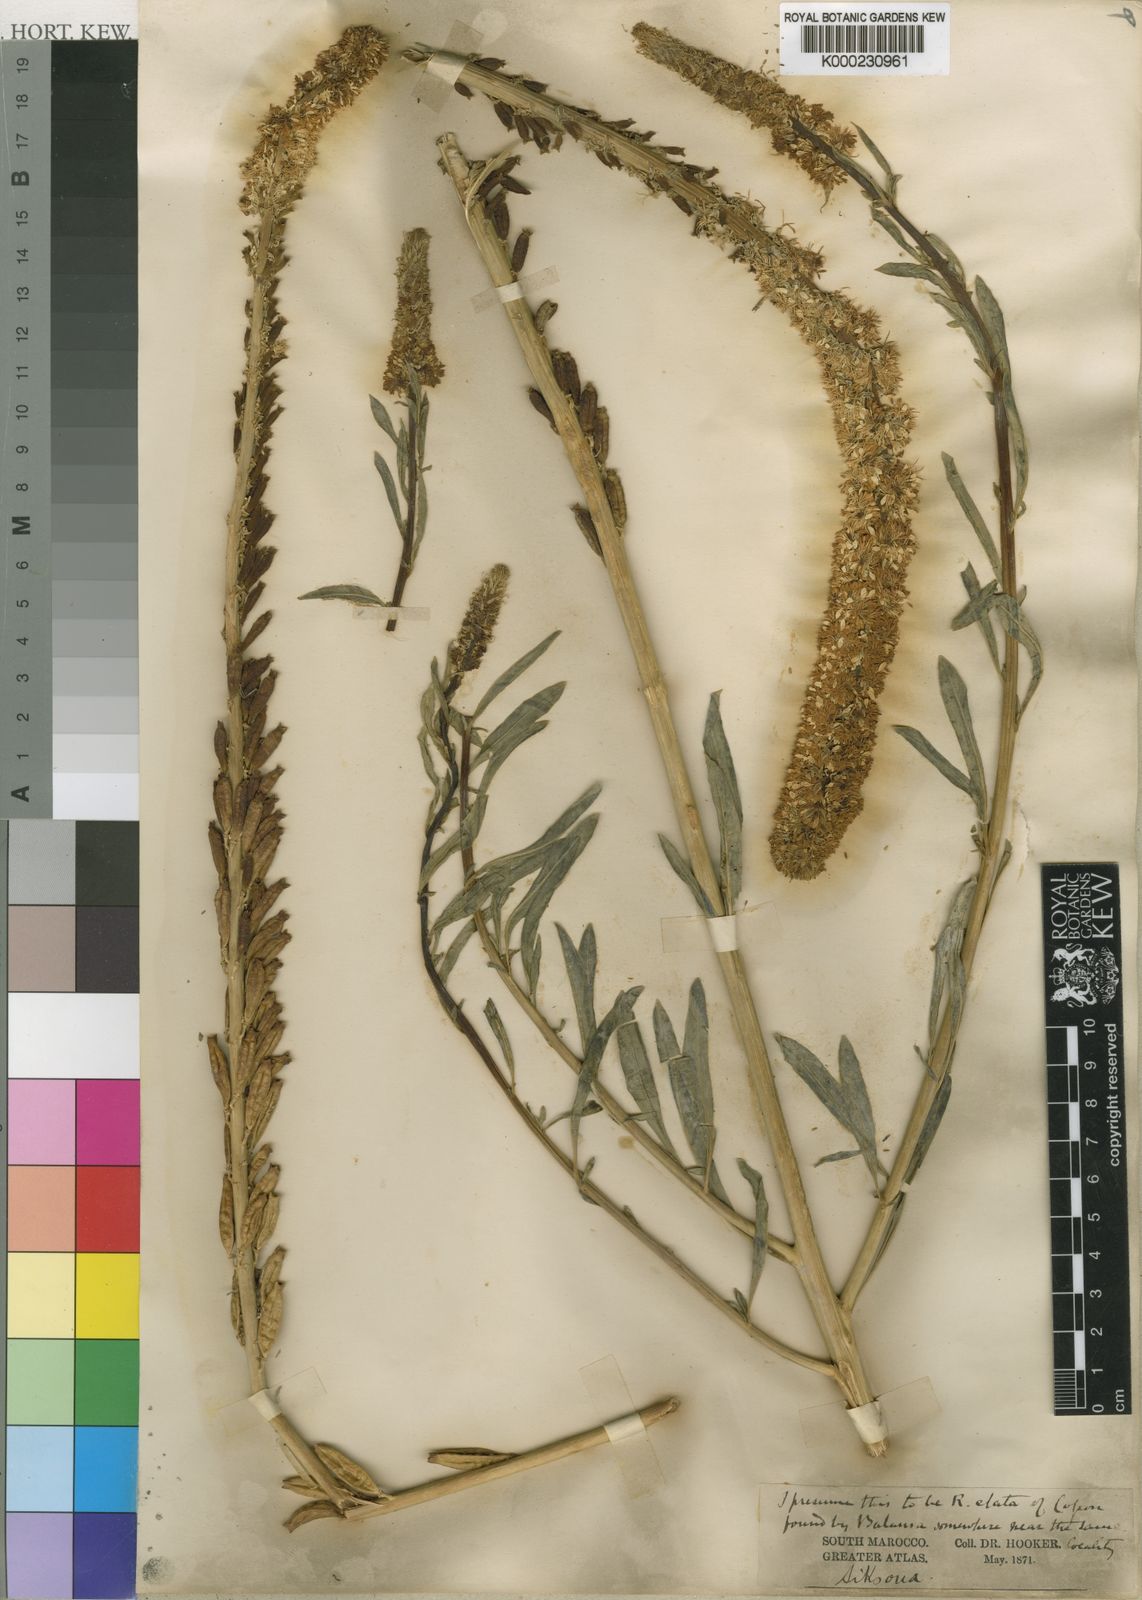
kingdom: Plantae
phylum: Tracheophyta
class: Magnoliopsida
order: Brassicales
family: Resedaceae
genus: Reseda
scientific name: Reseda
